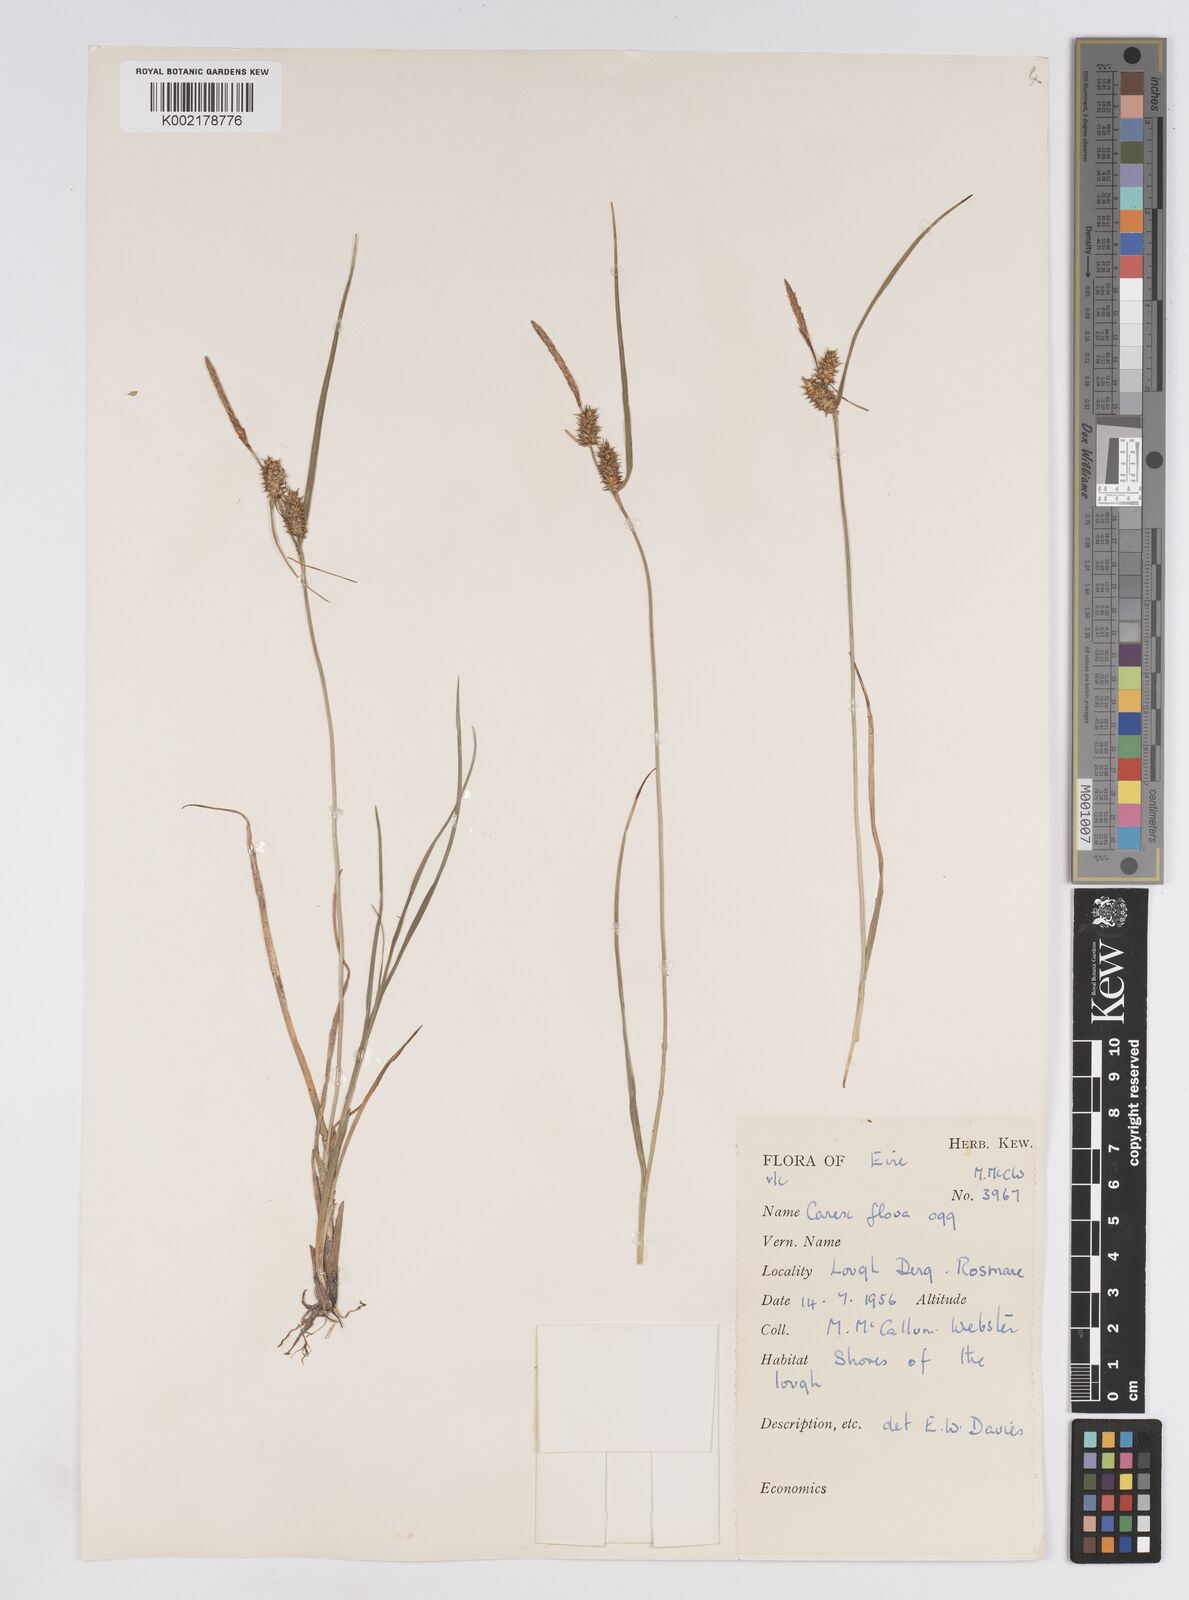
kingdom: Plantae
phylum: Tracheophyta
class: Liliopsida
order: Poales
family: Cyperaceae
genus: Carex
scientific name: Carex lepidocarpa
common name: Long-stalked yellow-sedge
